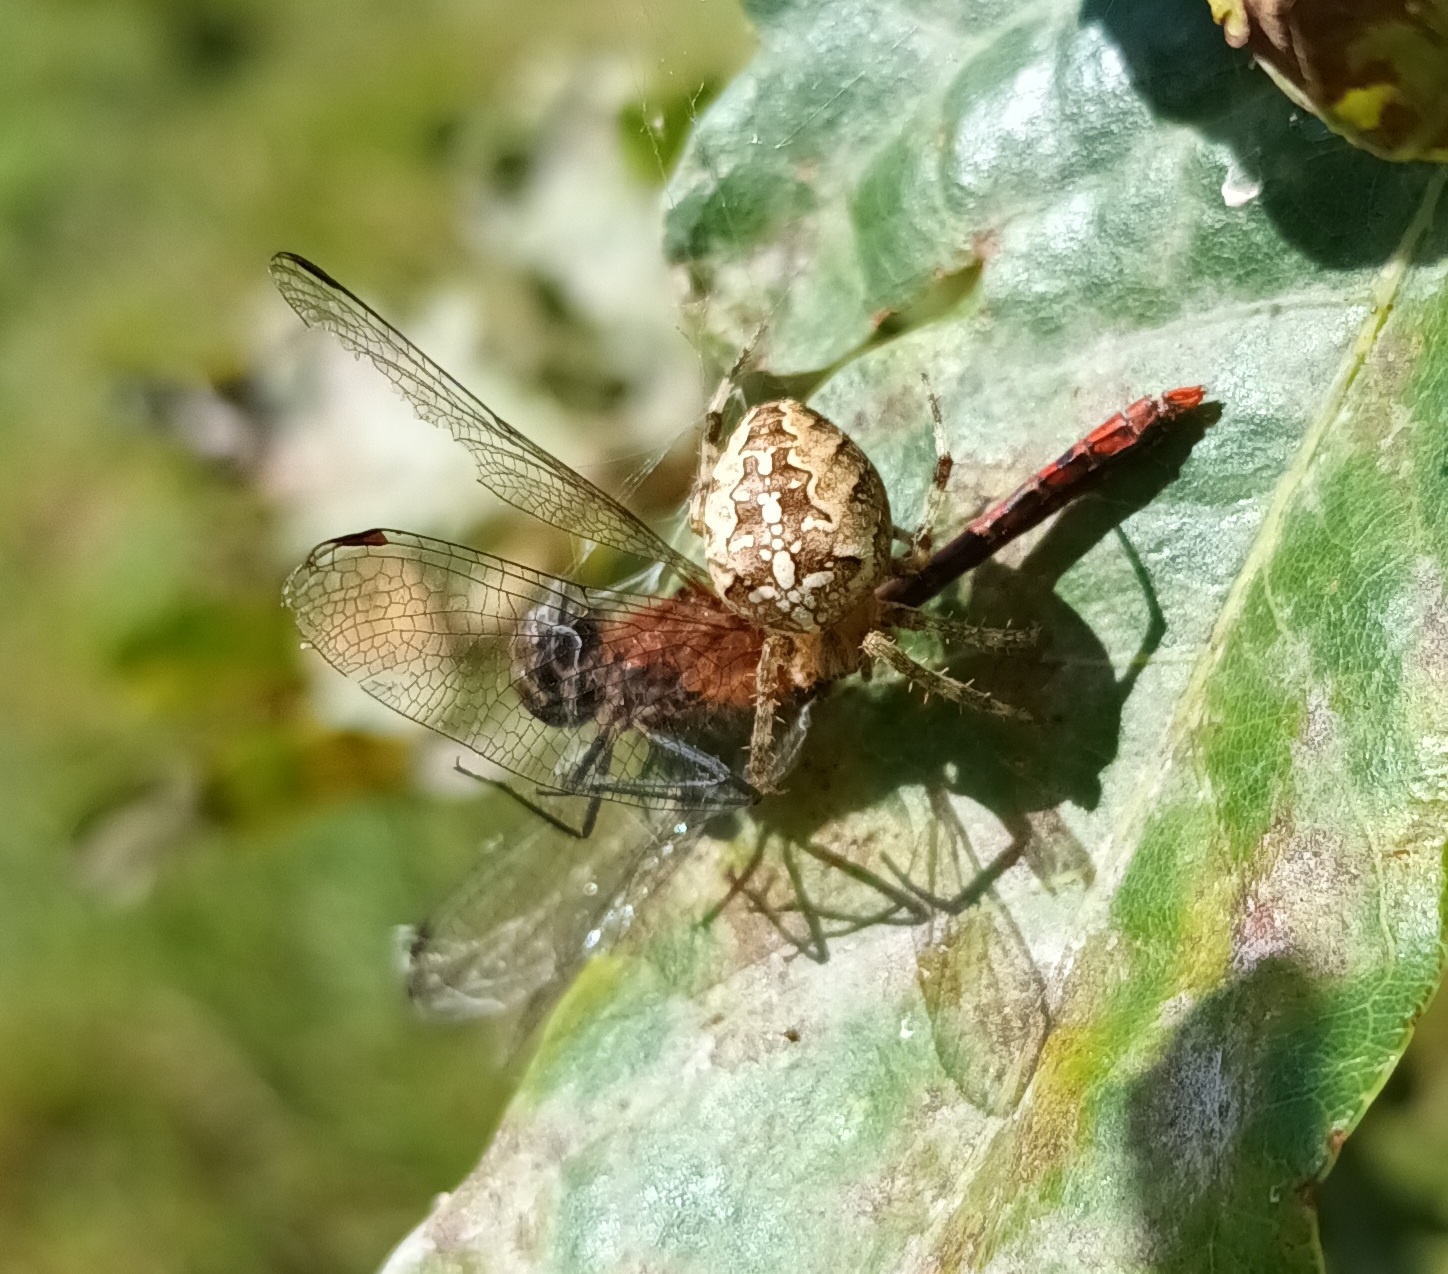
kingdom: Animalia
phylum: Arthropoda
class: Arachnida
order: Araneae
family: Araneidae
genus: Araneus
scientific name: Araneus diadematus
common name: Korsedderkop
